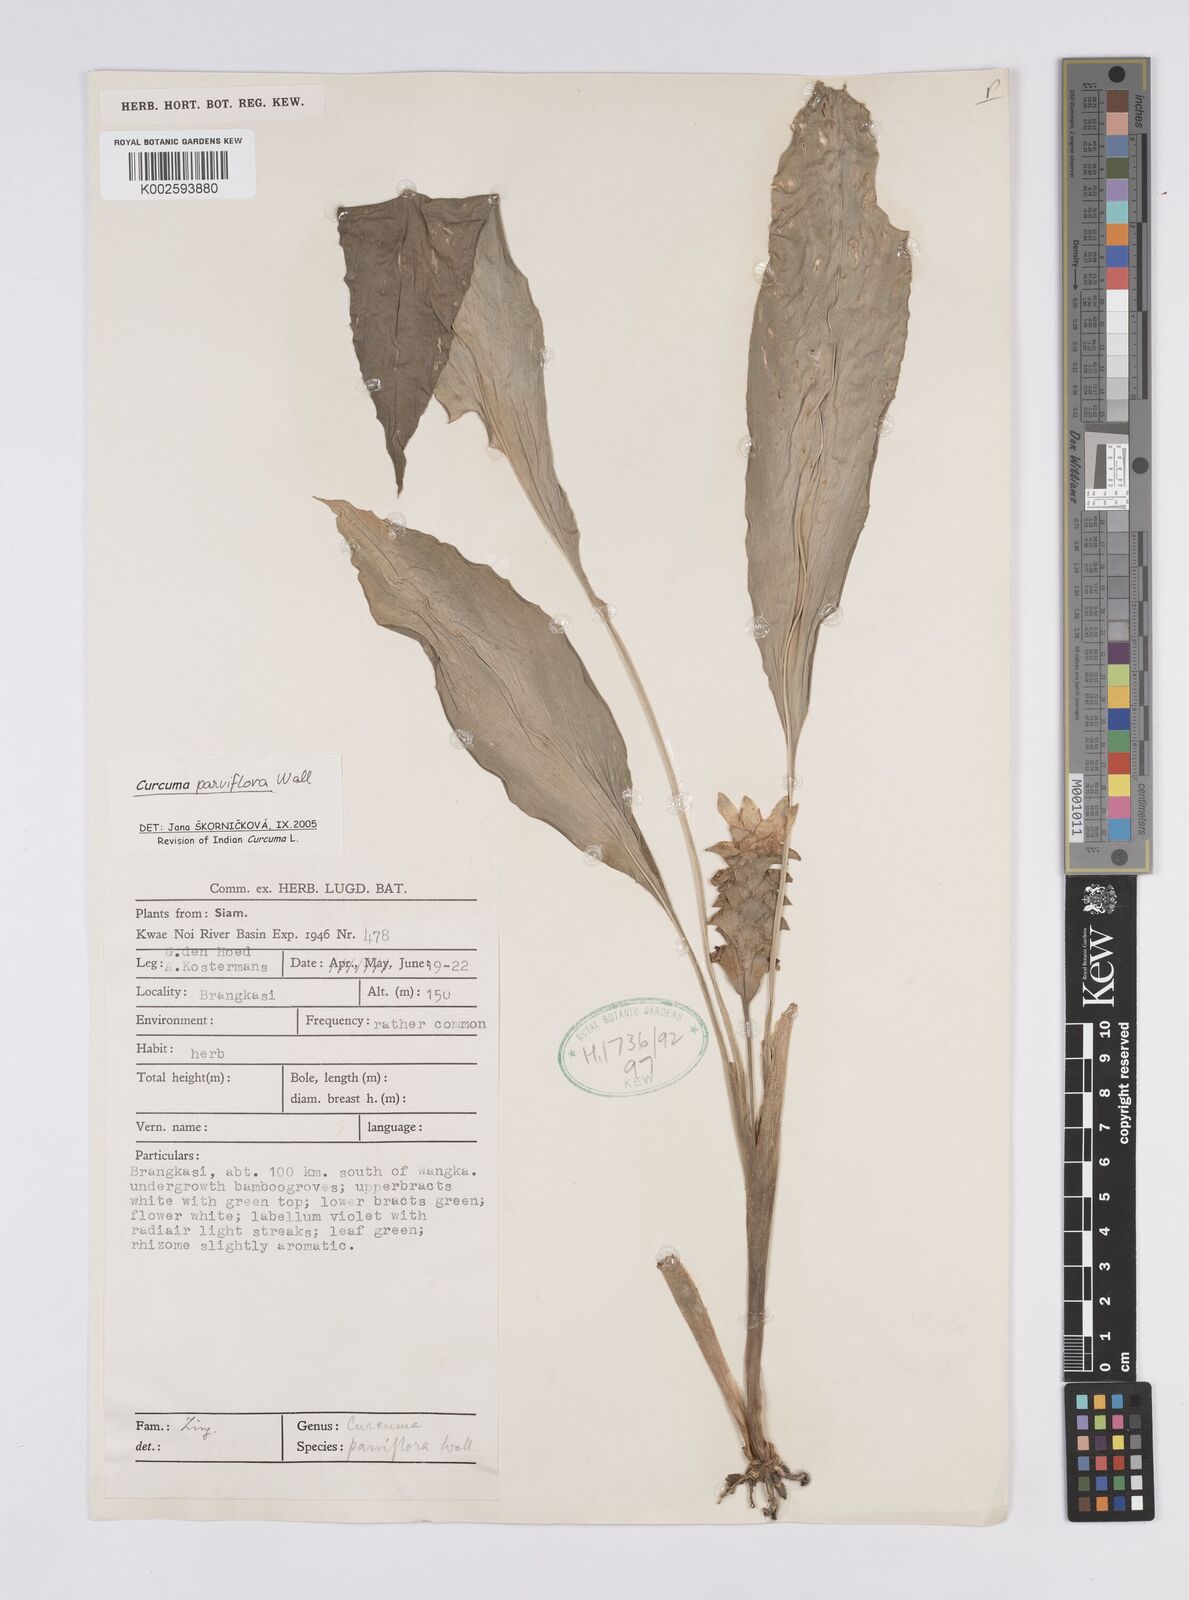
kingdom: Plantae
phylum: Tracheophyta
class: Liliopsida
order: Zingiberales
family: Zingiberaceae
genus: Curcuma
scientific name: Curcuma parviflora
